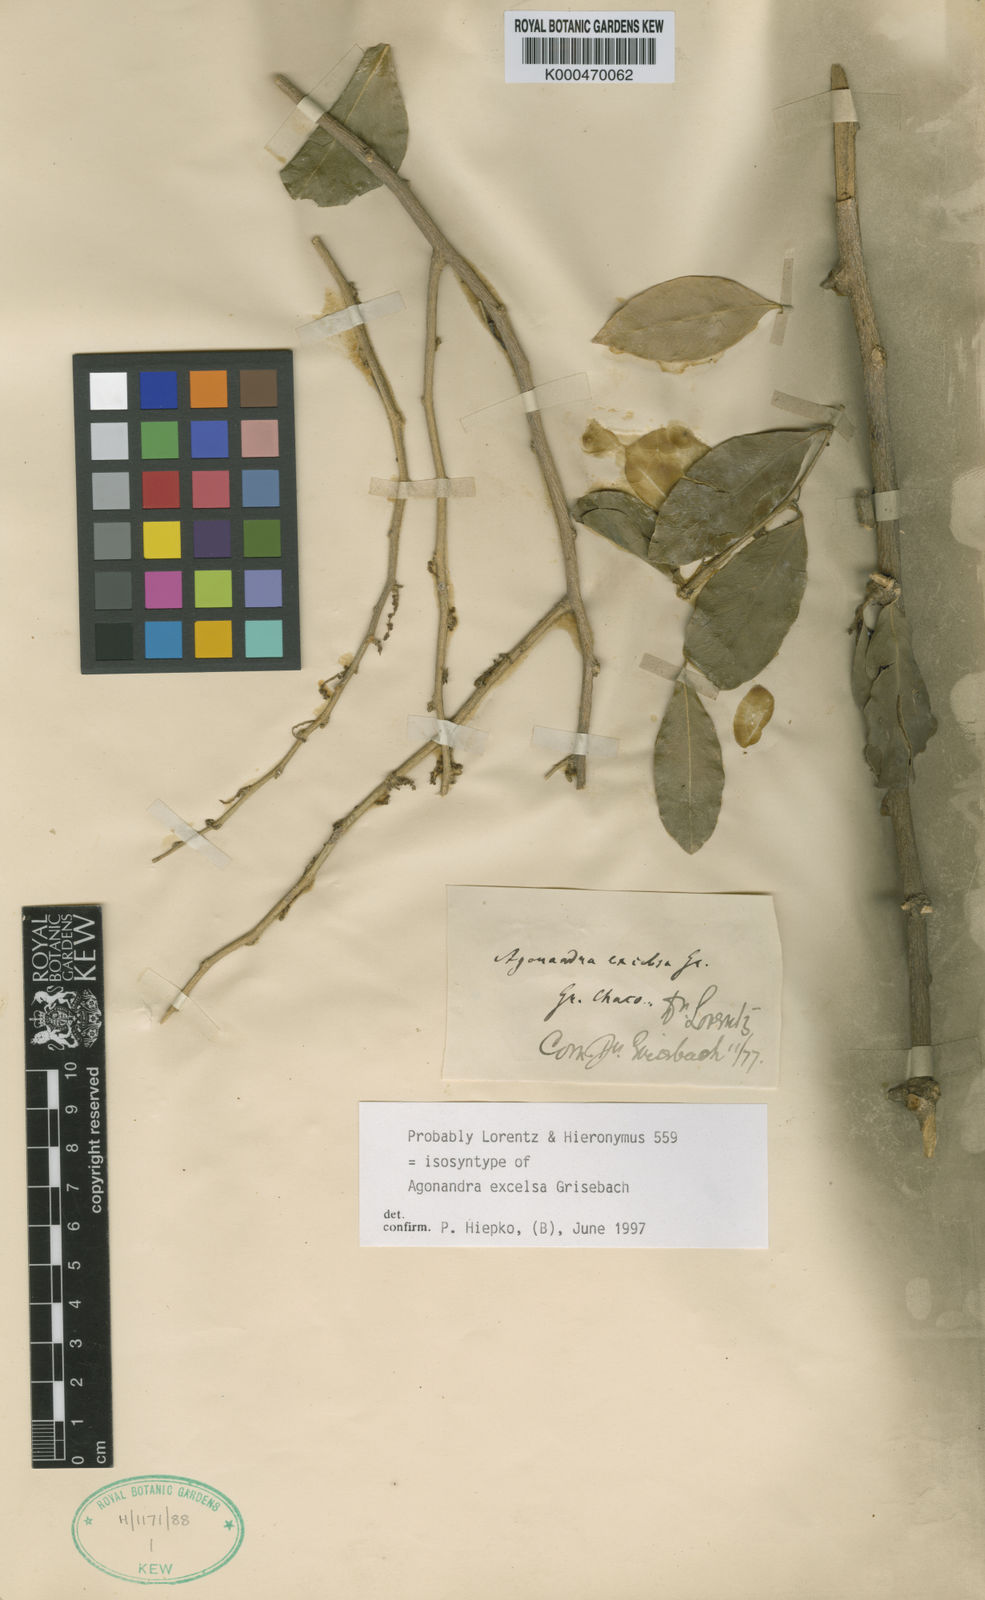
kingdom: Plantae
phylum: Tracheophyta
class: Magnoliopsida
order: Santalales
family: Opiliaceae
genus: Agonandra
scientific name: Agonandra excelsa
